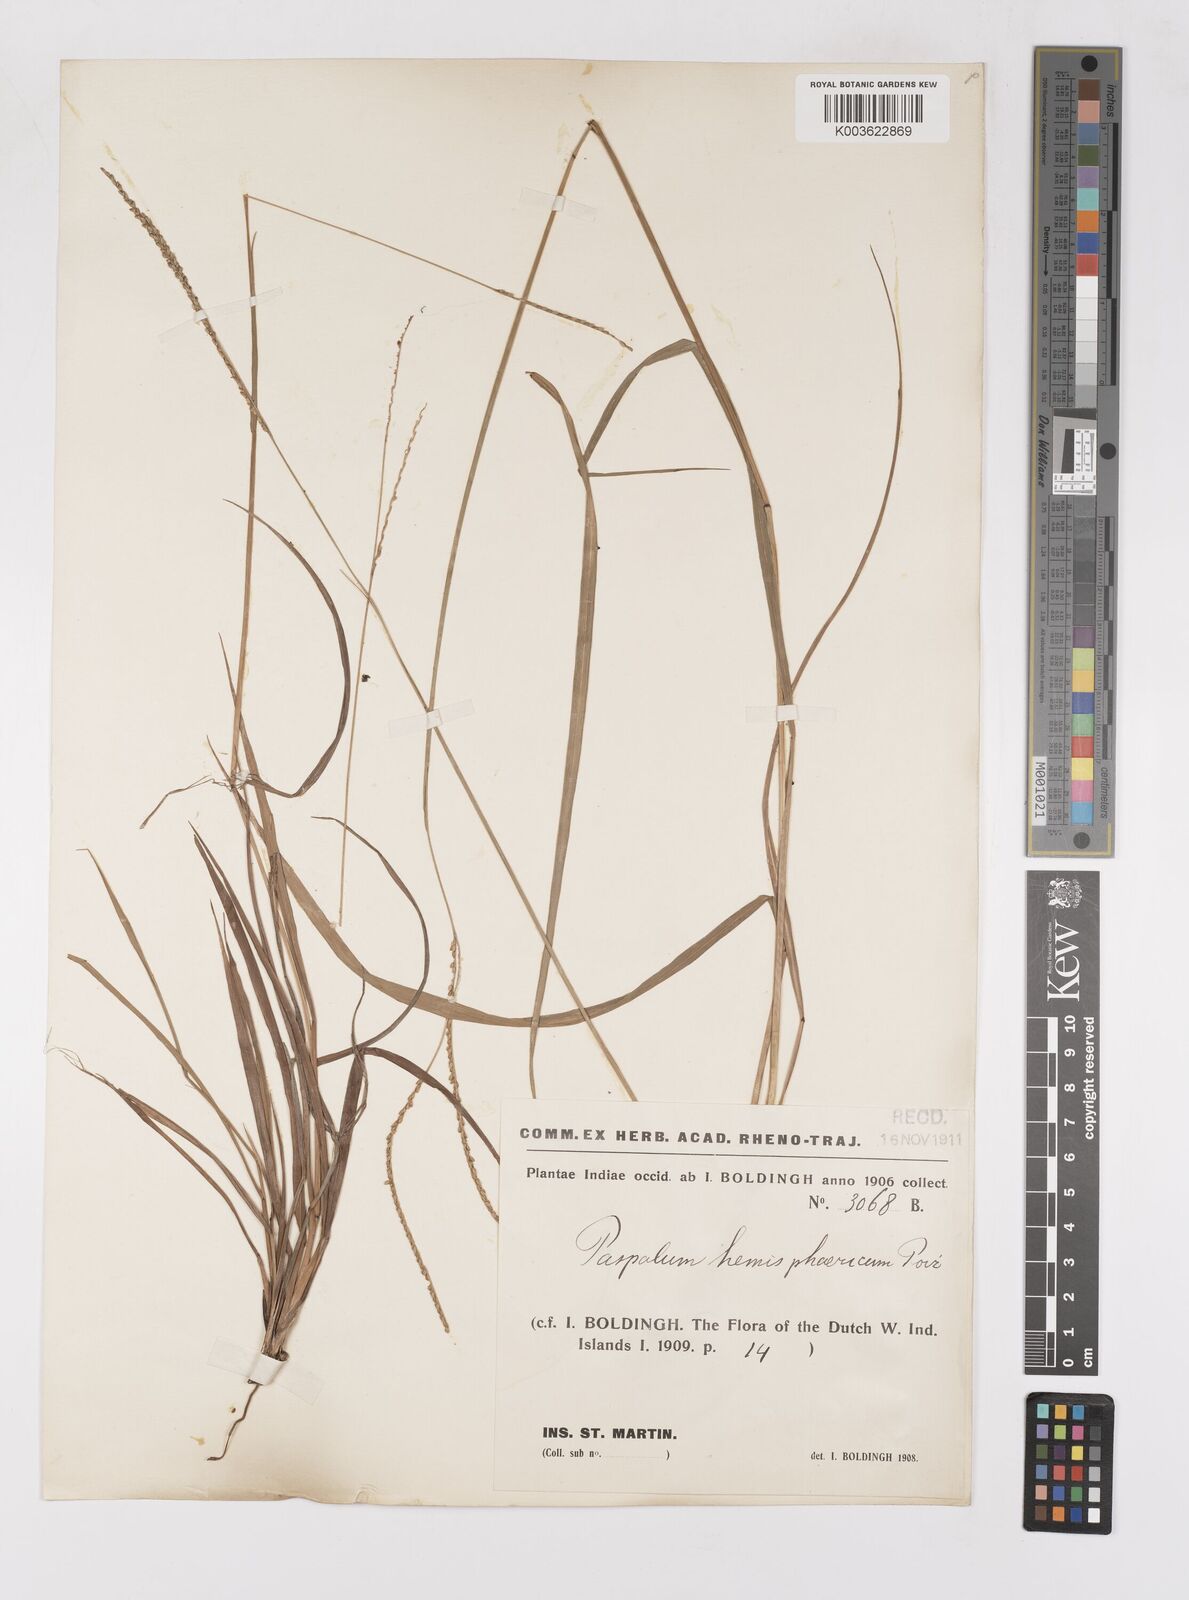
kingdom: Plantae
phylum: Tracheophyta
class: Liliopsida
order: Poales
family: Poaceae
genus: Paspalum
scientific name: Paspalum laxum
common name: Coconut paspalum
